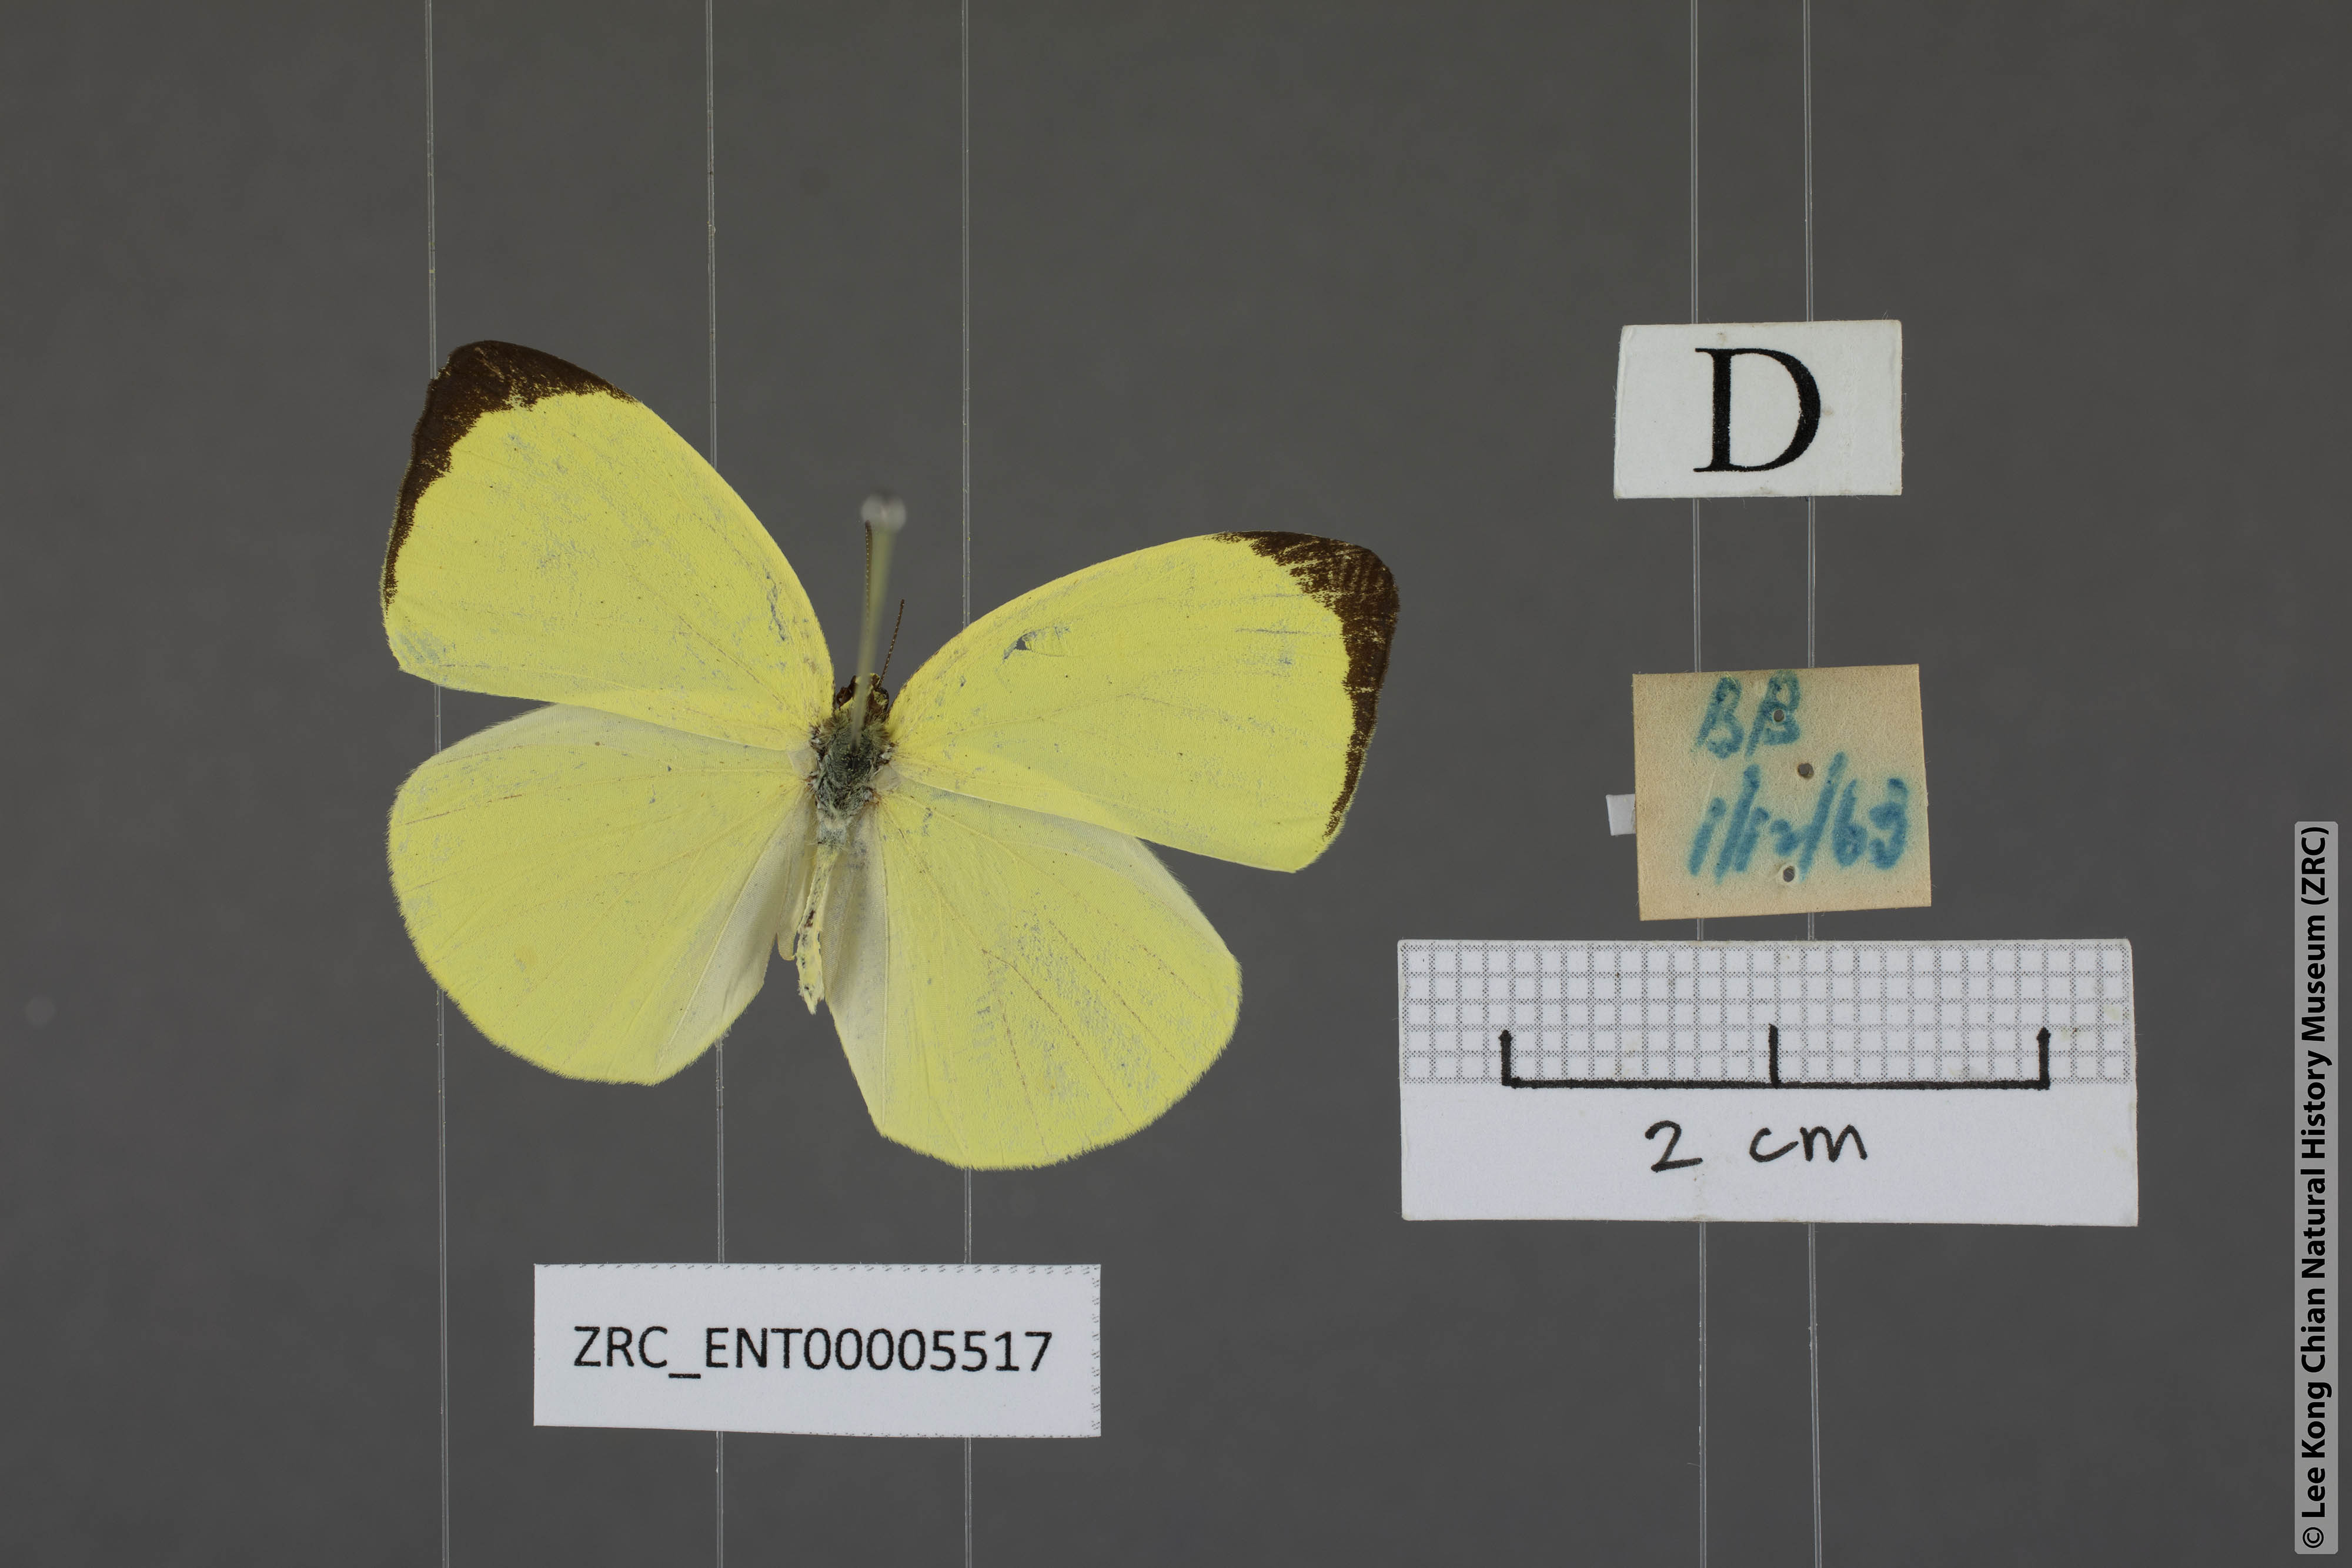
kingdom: Animalia
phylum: Arthropoda
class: Insecta
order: Lepidoptera
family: Pieridae
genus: Gandaca
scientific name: Gandaca harina
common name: Tree yellow
